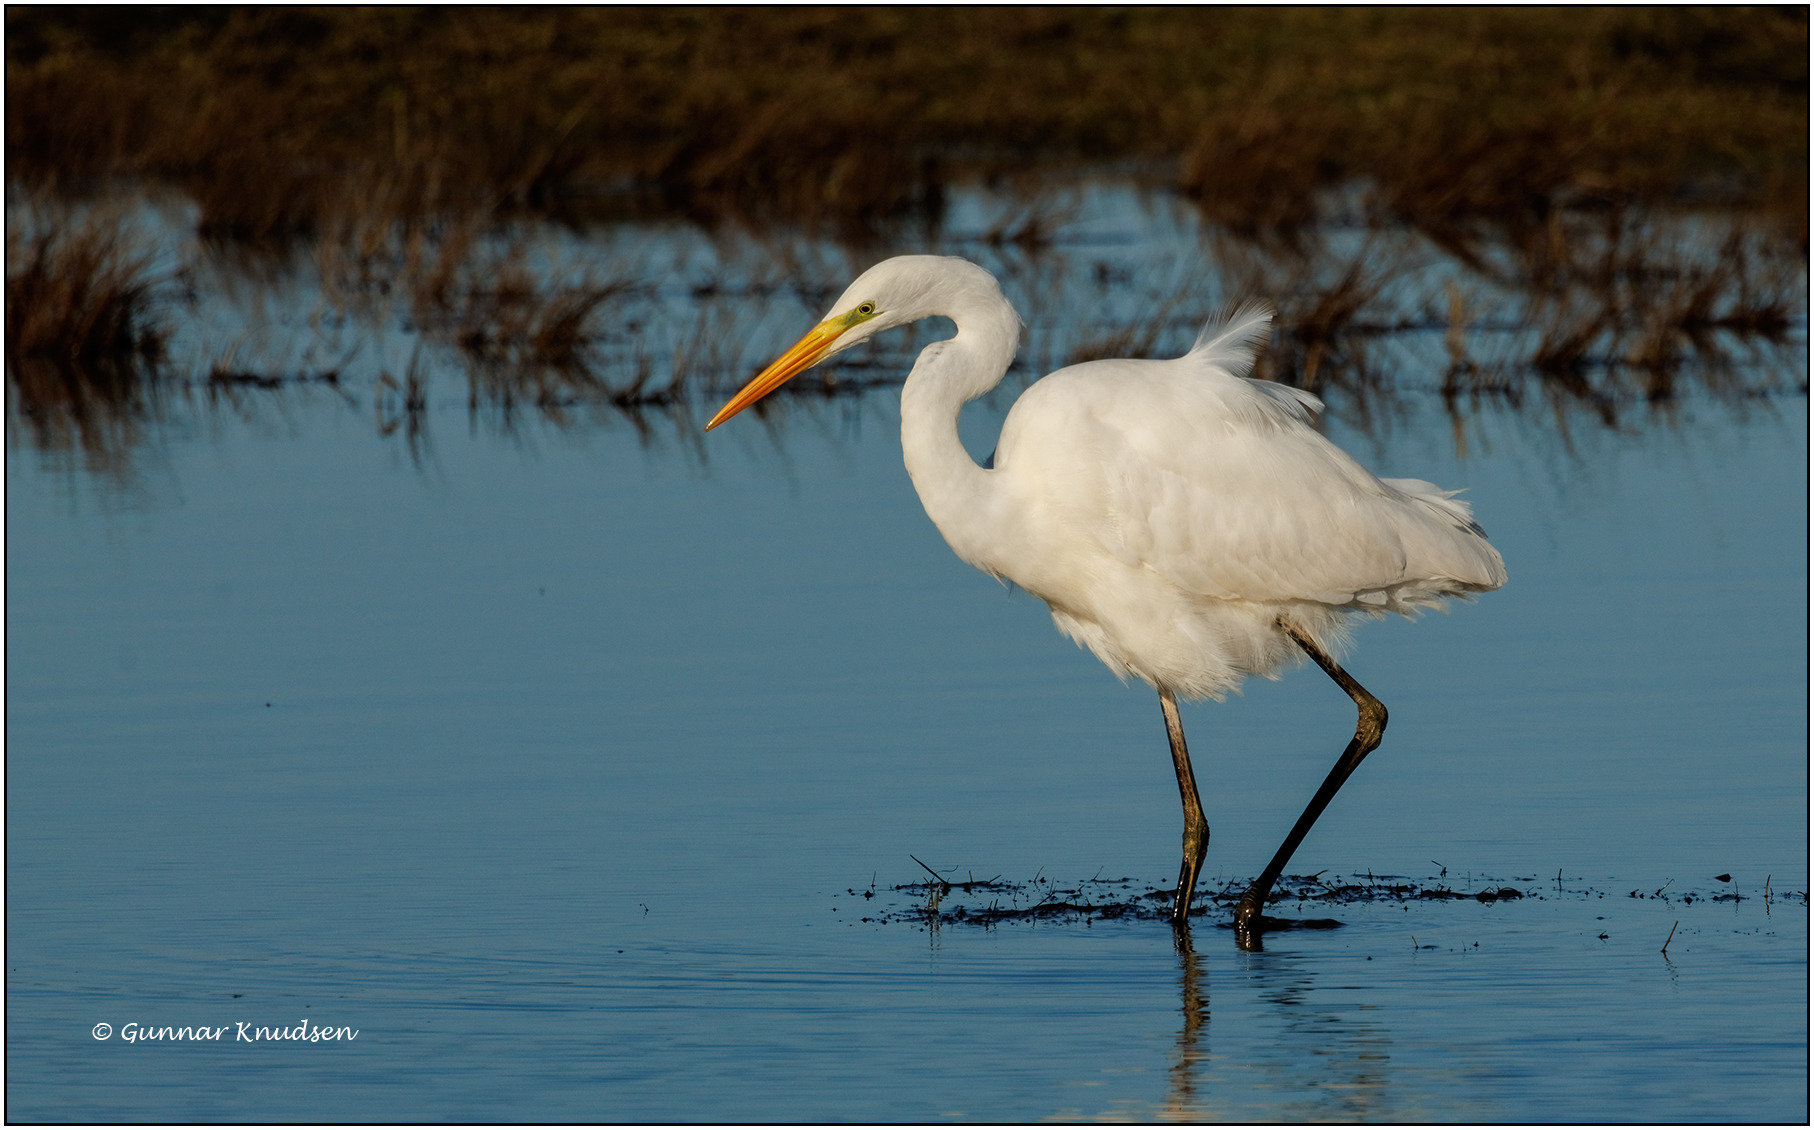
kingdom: Animalia
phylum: Chordata
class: Aves
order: Pelecaniformes
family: Ardeidae
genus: Ardea
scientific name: Ardea alba
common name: Sølvhejre
